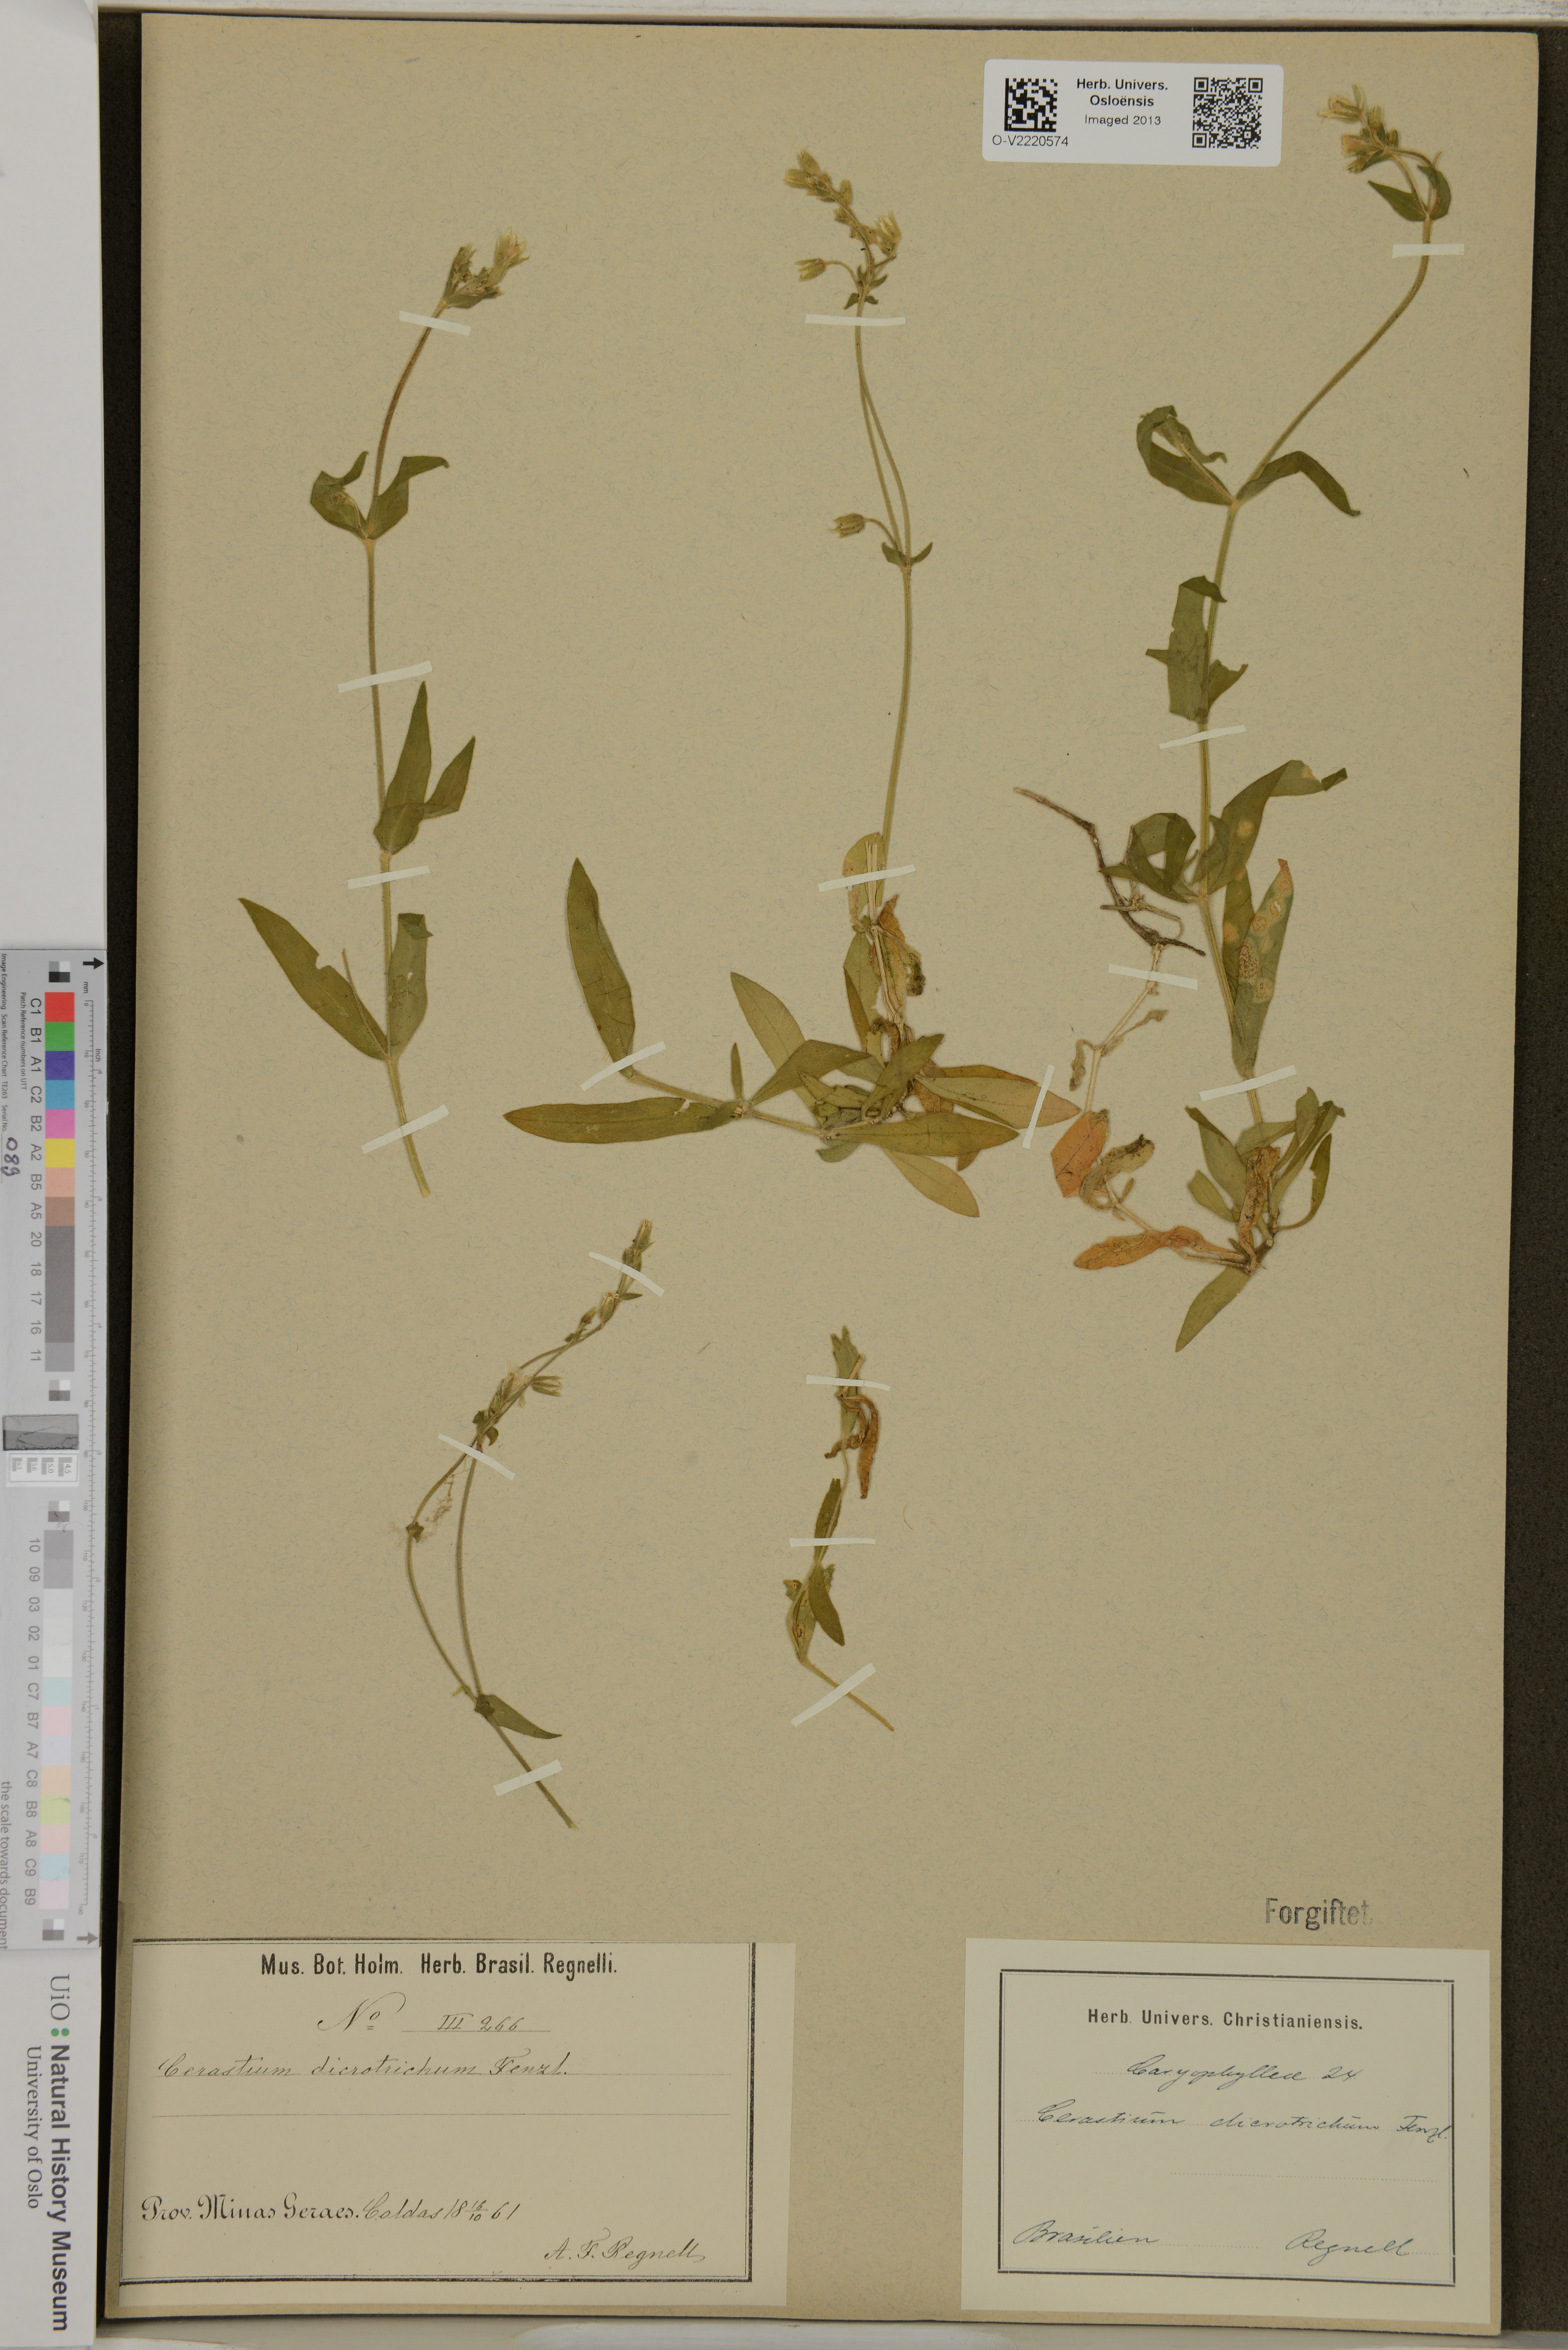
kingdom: Plantae
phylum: Tracheophyta
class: Magnoliopsida
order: Caryophyllales
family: Caryophyllaceae
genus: Cerastium
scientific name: Cerastium dicrotrichum
